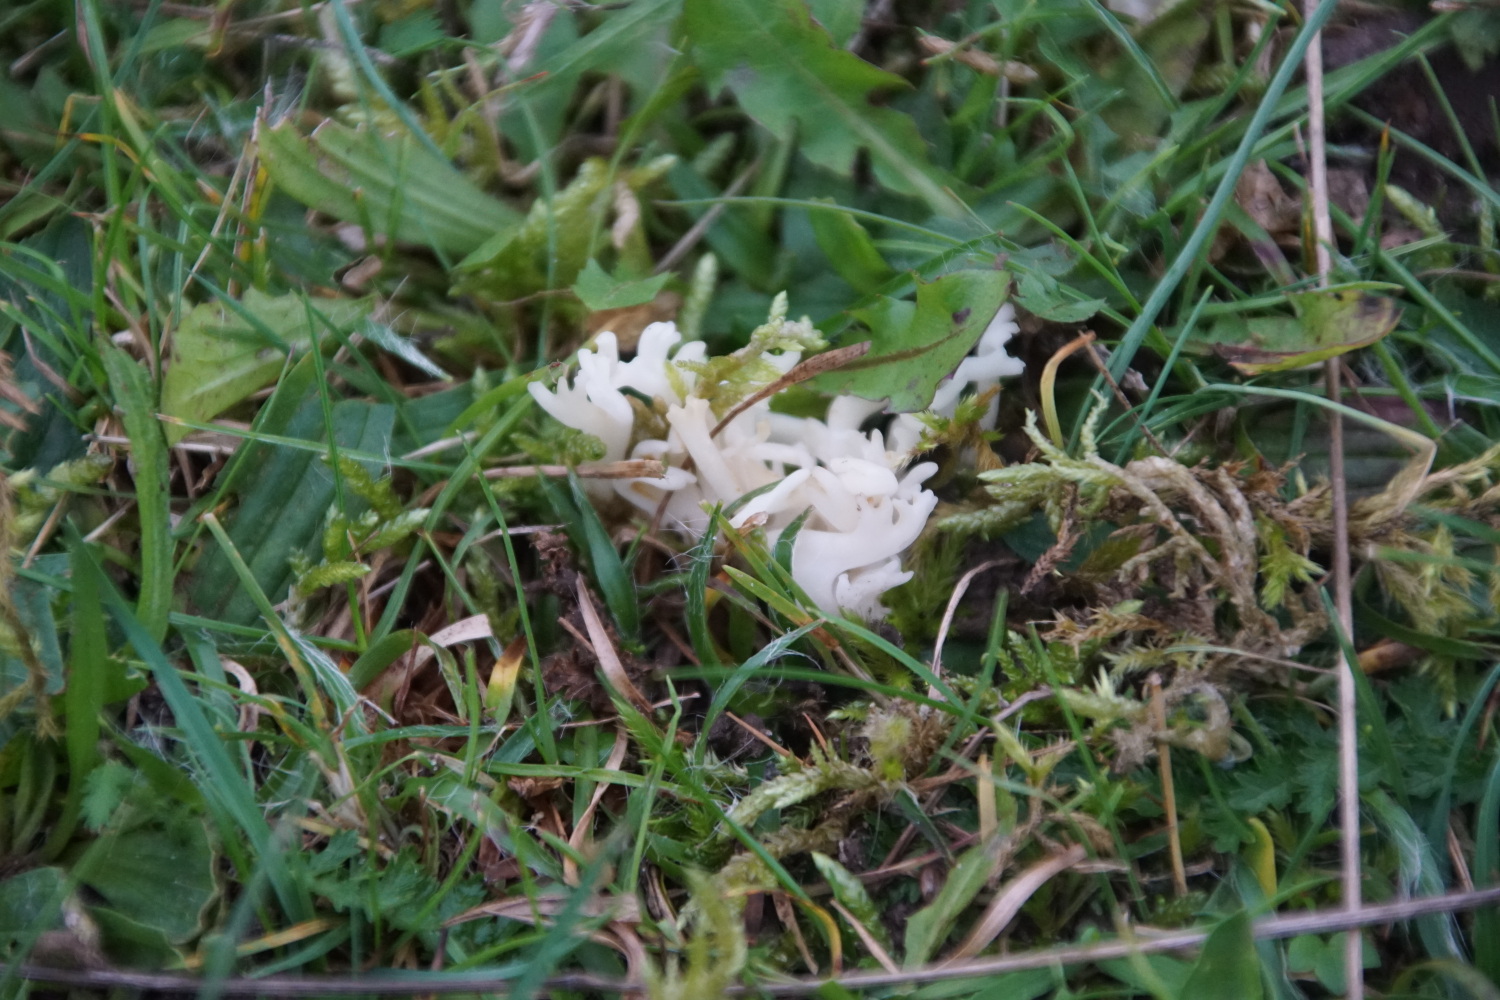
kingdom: Fungi
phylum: Basidiomycota
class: Agaricomycetes
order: Agaricales
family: Clavariaceae
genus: Ramariopsis
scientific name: Ramariopsis robusta
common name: tykgrenet køllesvamp
